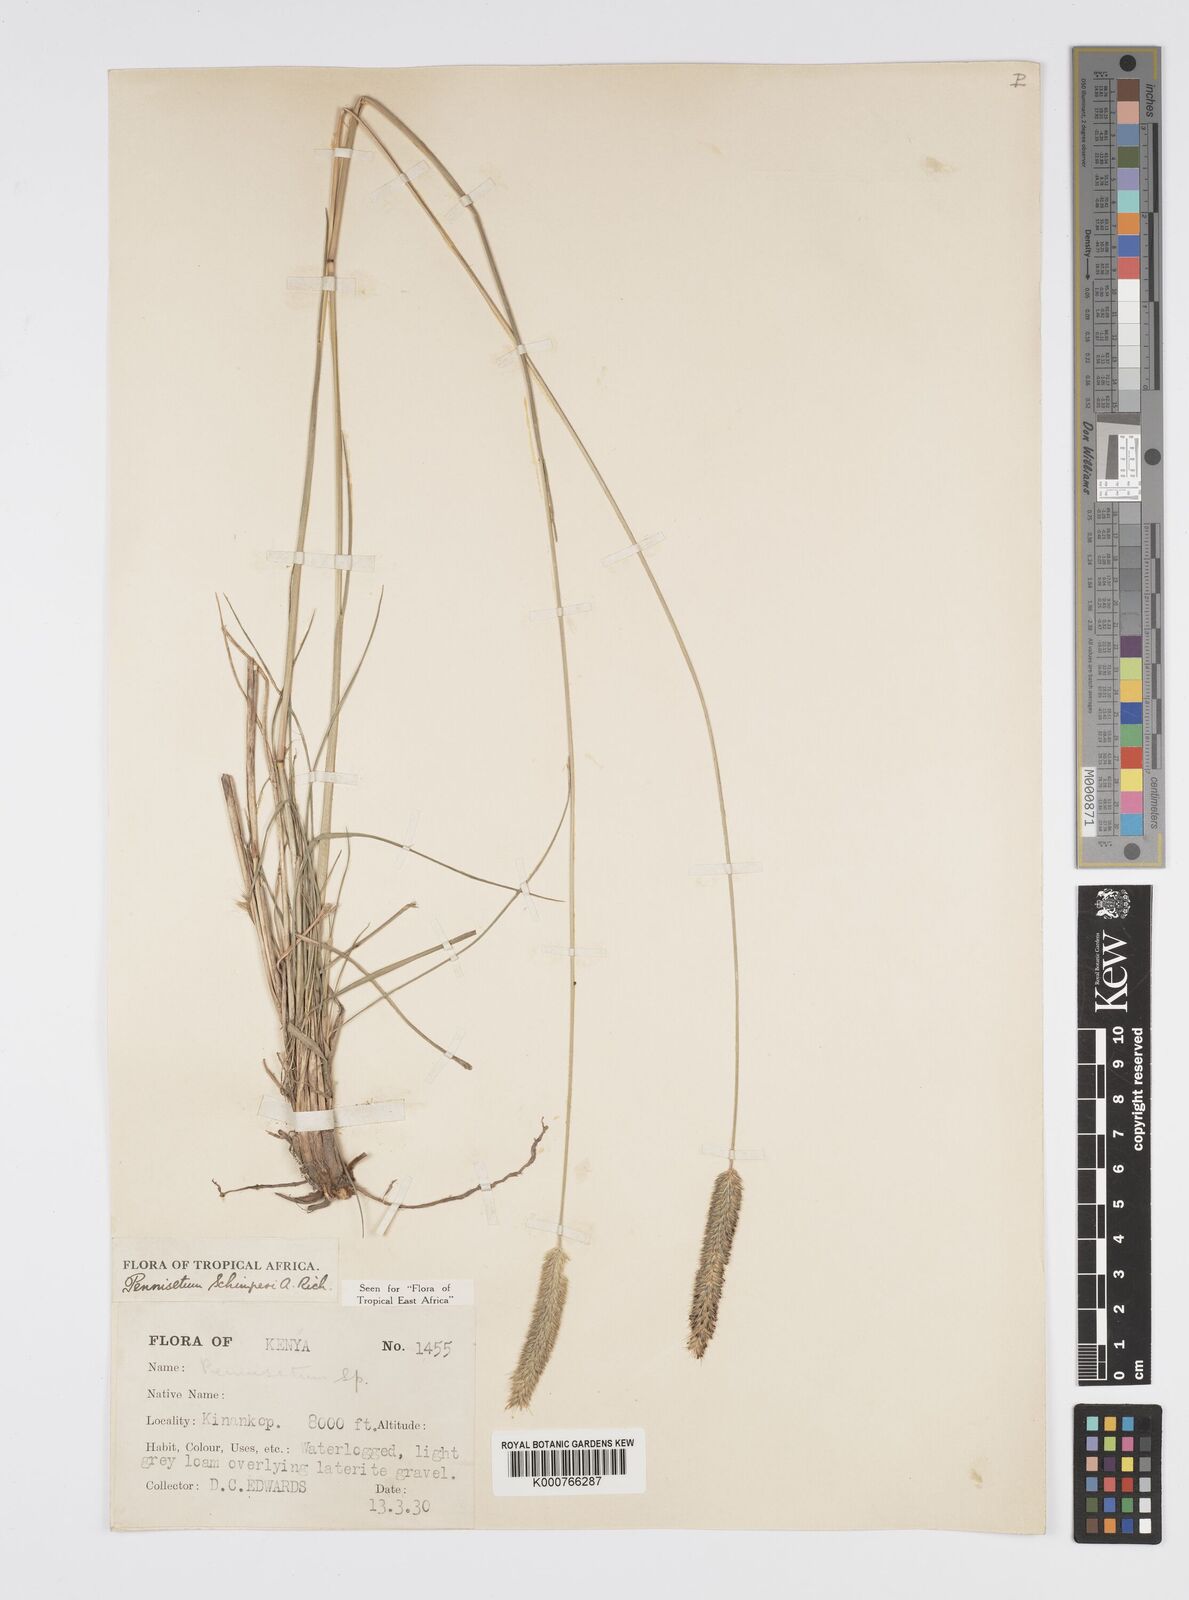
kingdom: Plantae
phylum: Tracheophyta
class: Liliopsida
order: Poales
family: Poaceae
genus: Cenchrus
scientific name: Cenchrus sphacelatus
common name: Bulgras
